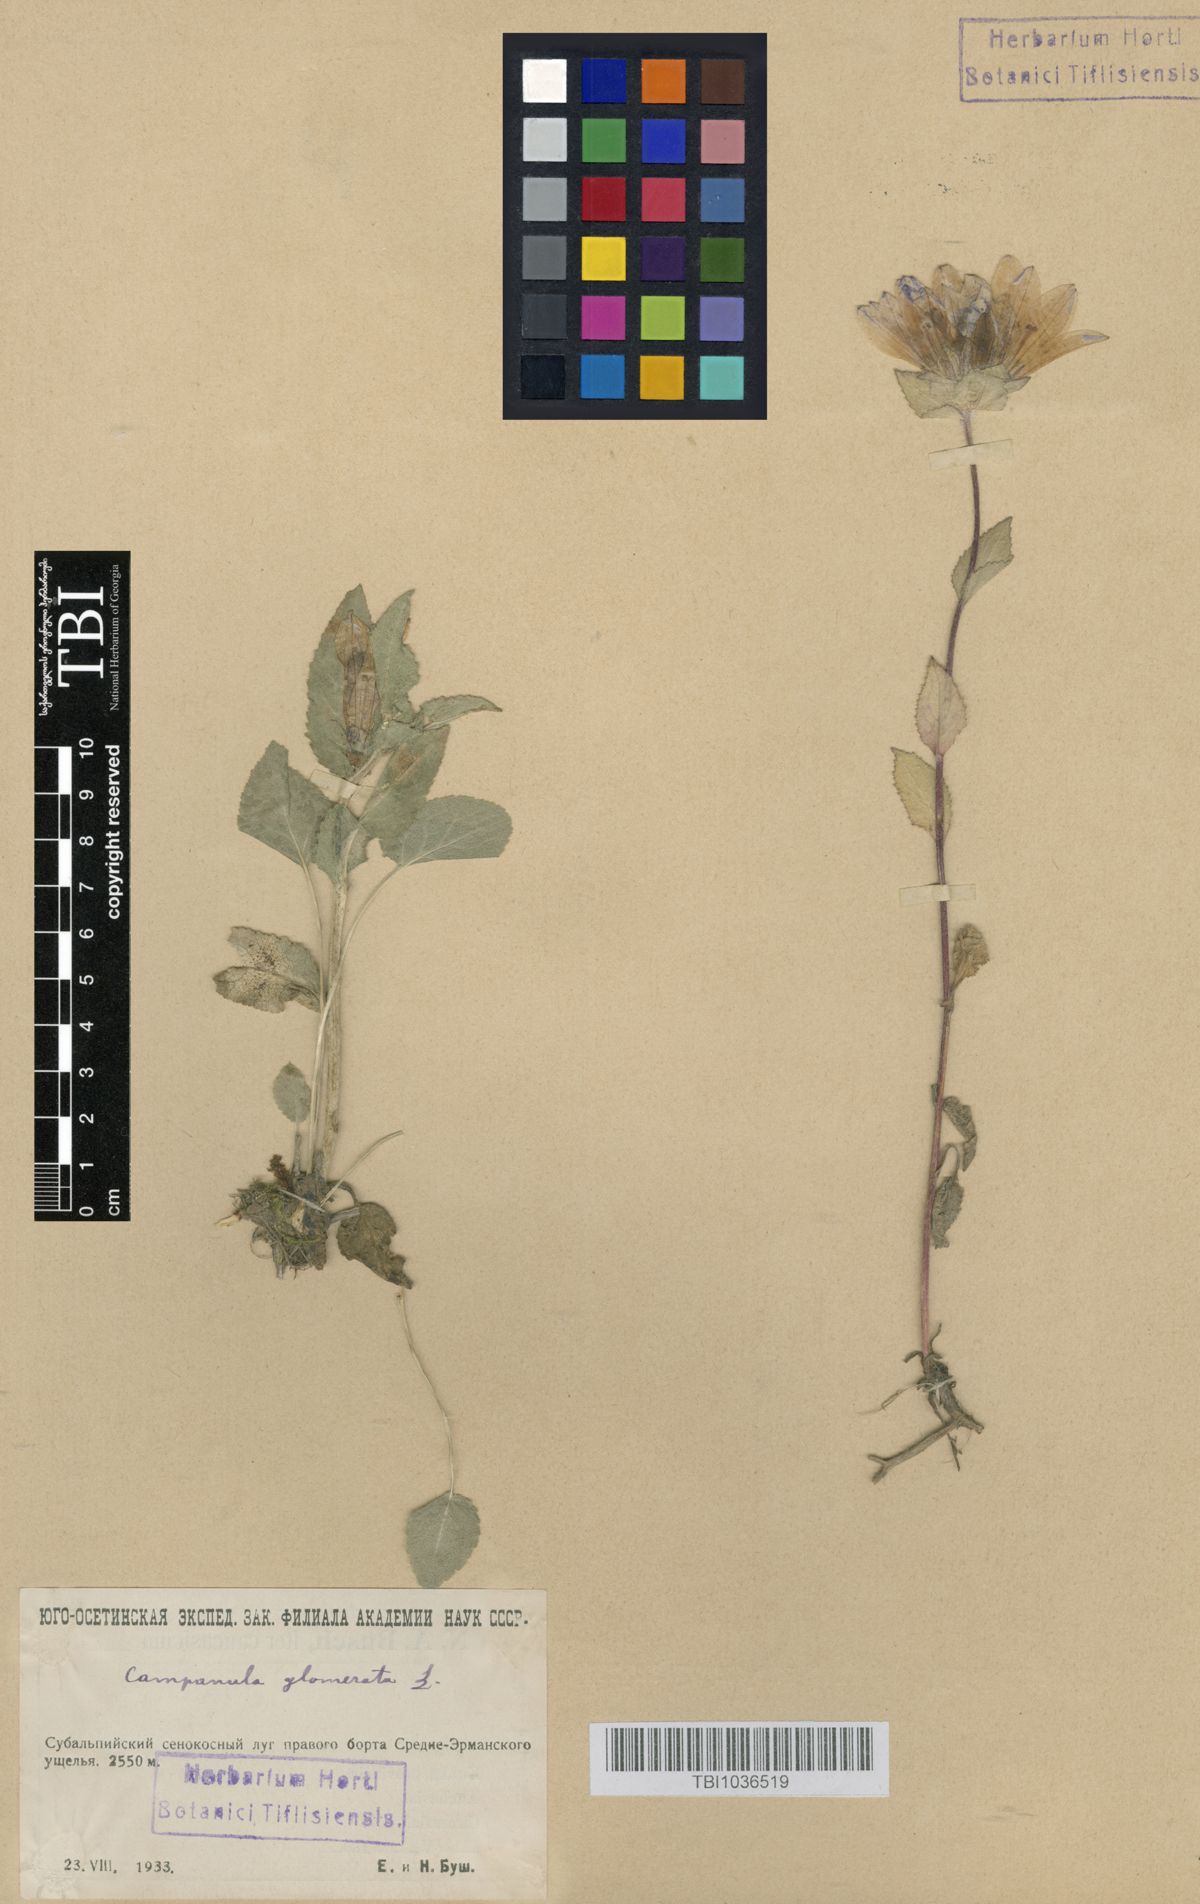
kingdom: Plantae
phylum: Tracheophyta
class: Magnoliopsida
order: Asterales
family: Campanulaceae
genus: Campanula
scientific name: Campanula glomerata
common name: Clustered bellflower
